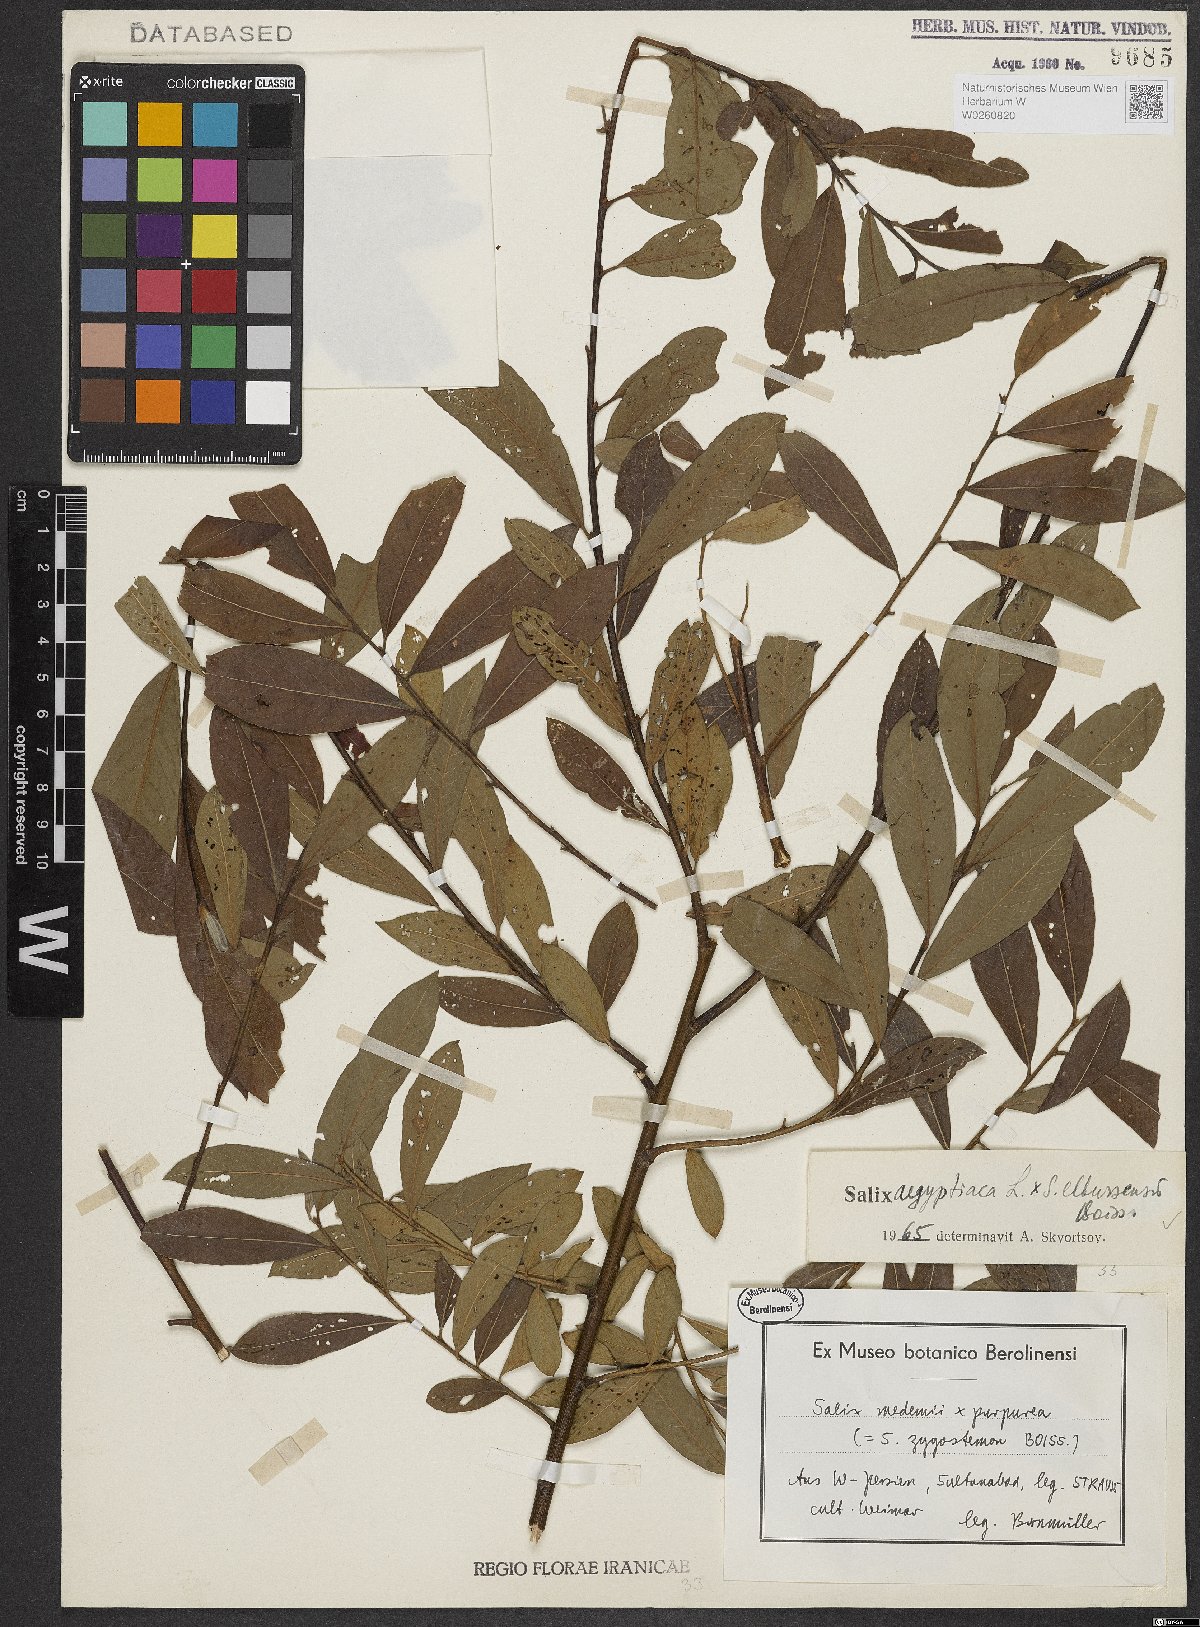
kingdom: Plantae
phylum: Tracheophyta
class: Magnoliopsida
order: Malpighiales
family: Salicaceae
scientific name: Salicaceae
